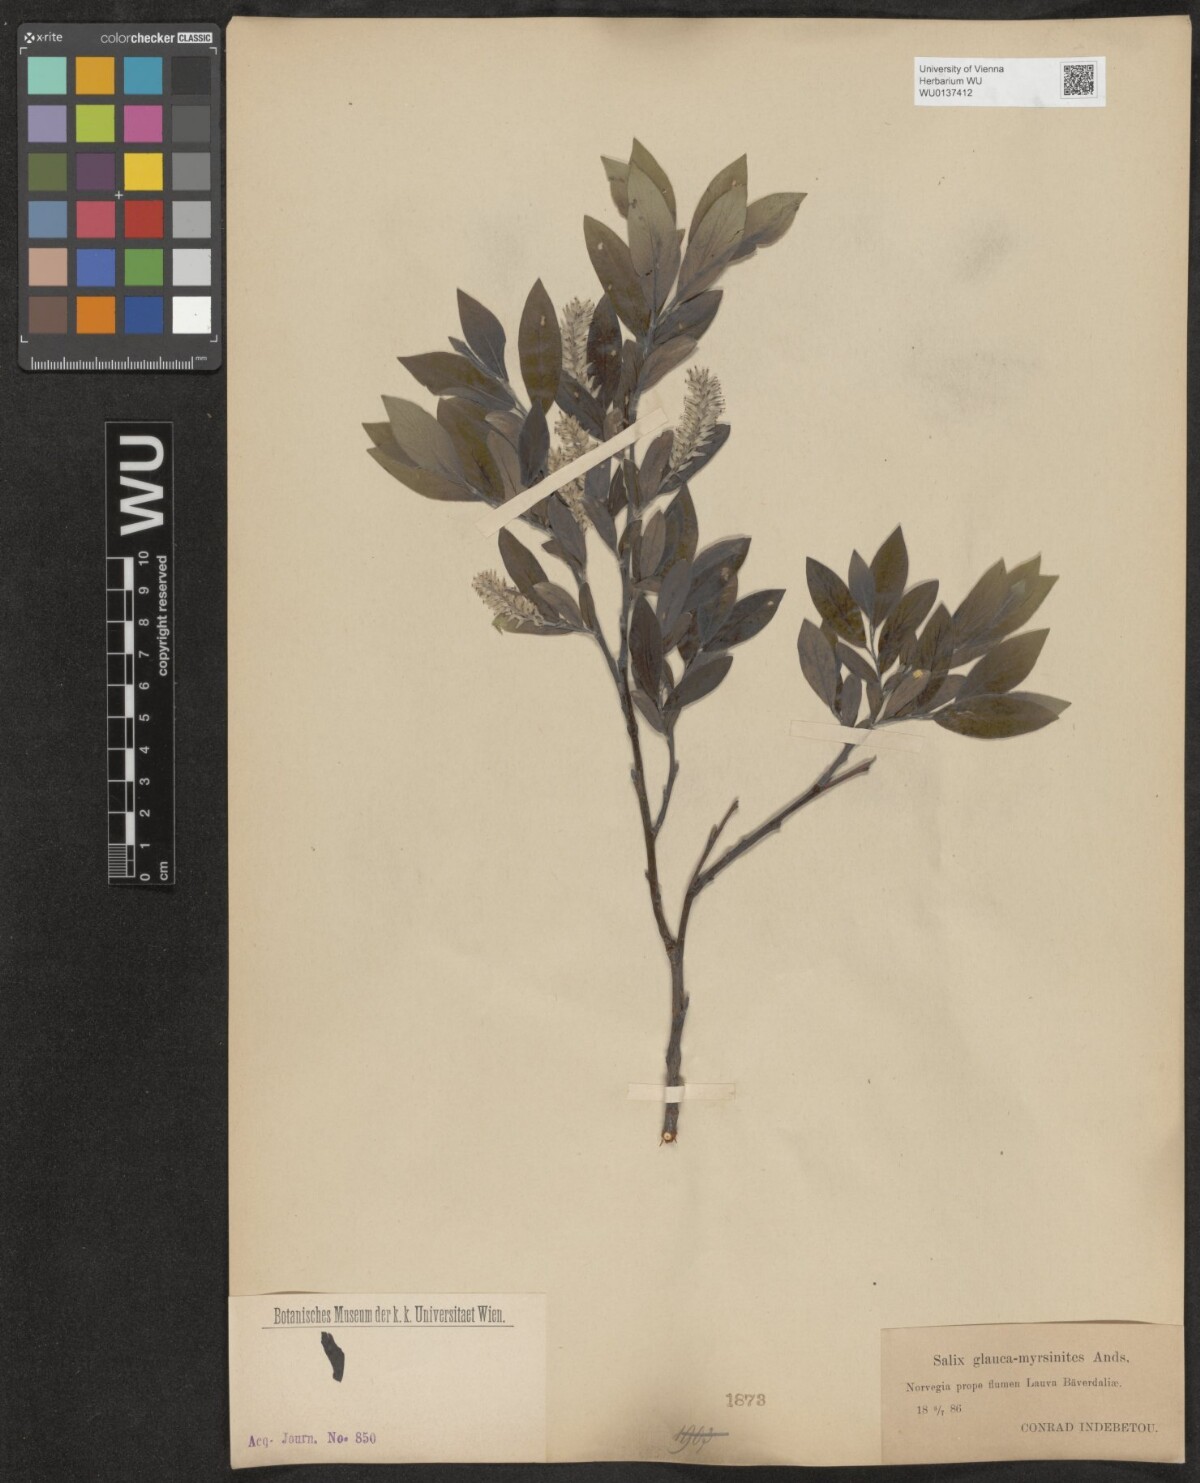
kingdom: Plantae
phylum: Tracheophyta
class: Magnoliopsida
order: Malpighiales
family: Salicaceae
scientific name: Salicaceae
